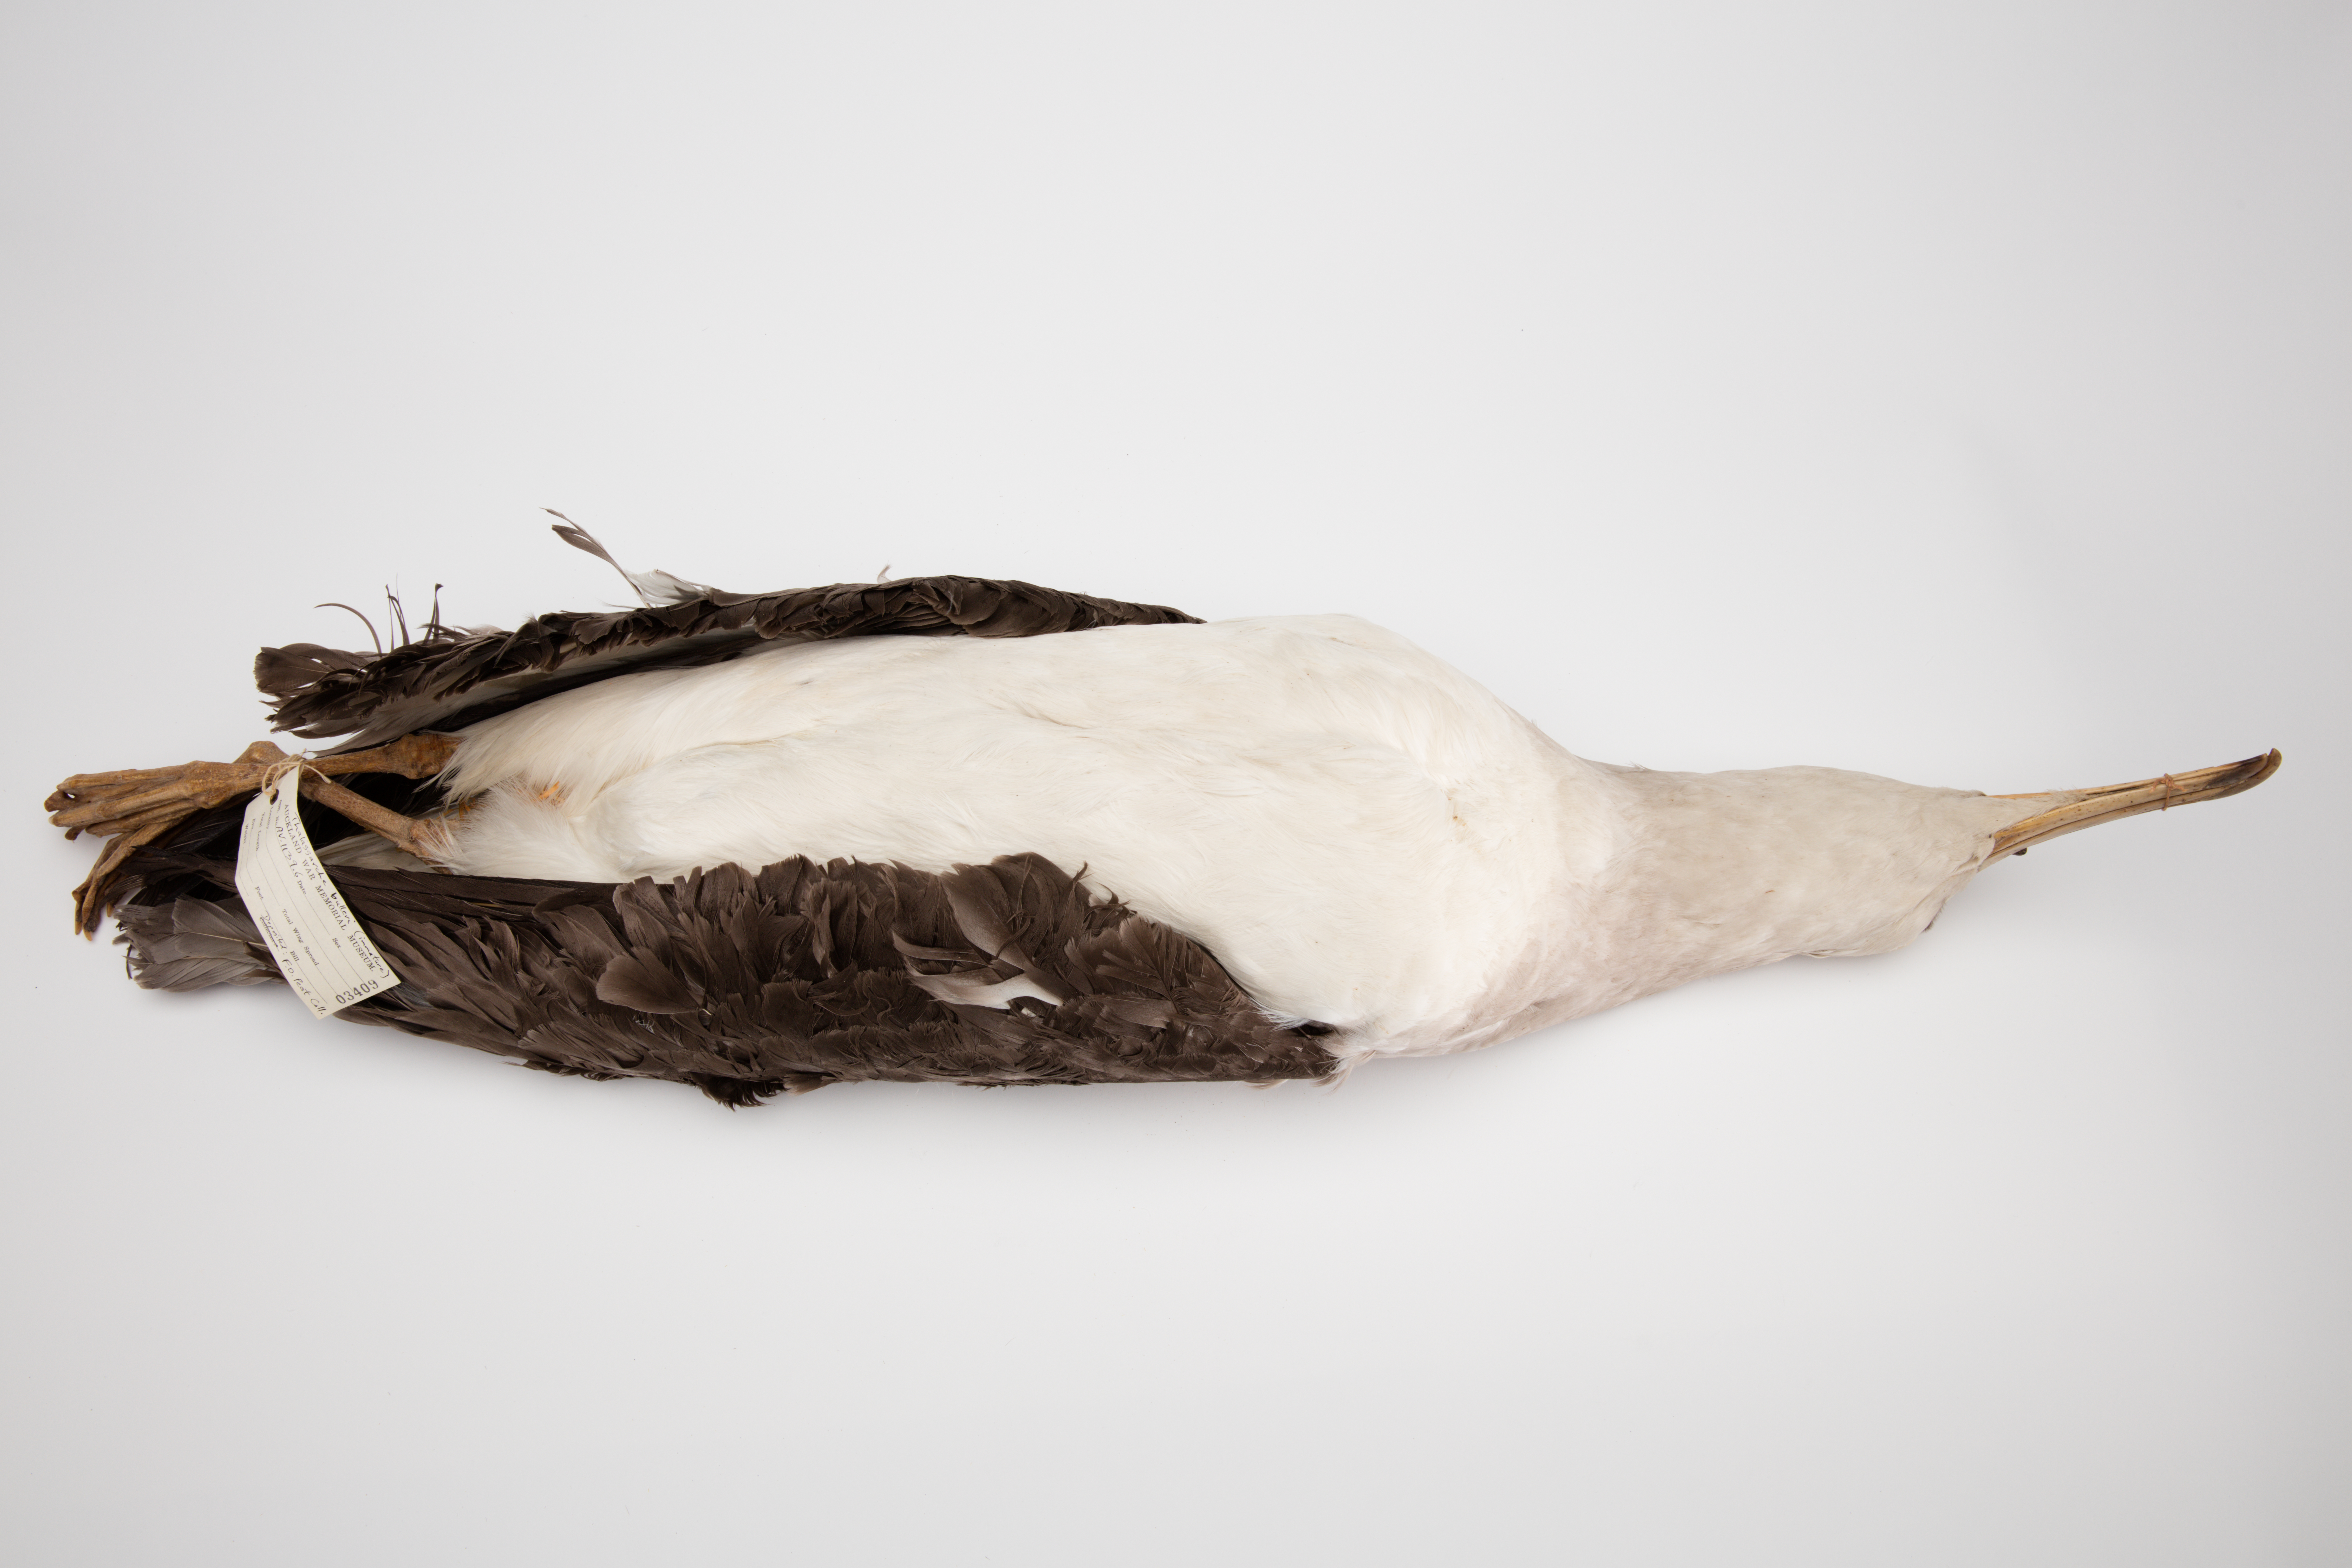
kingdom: Animalia
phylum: Chordata
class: Aves
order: Procellariiformes
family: Diomedeidae
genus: Thalassarche
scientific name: Thalassarche bulleri
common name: Buller's albatross
